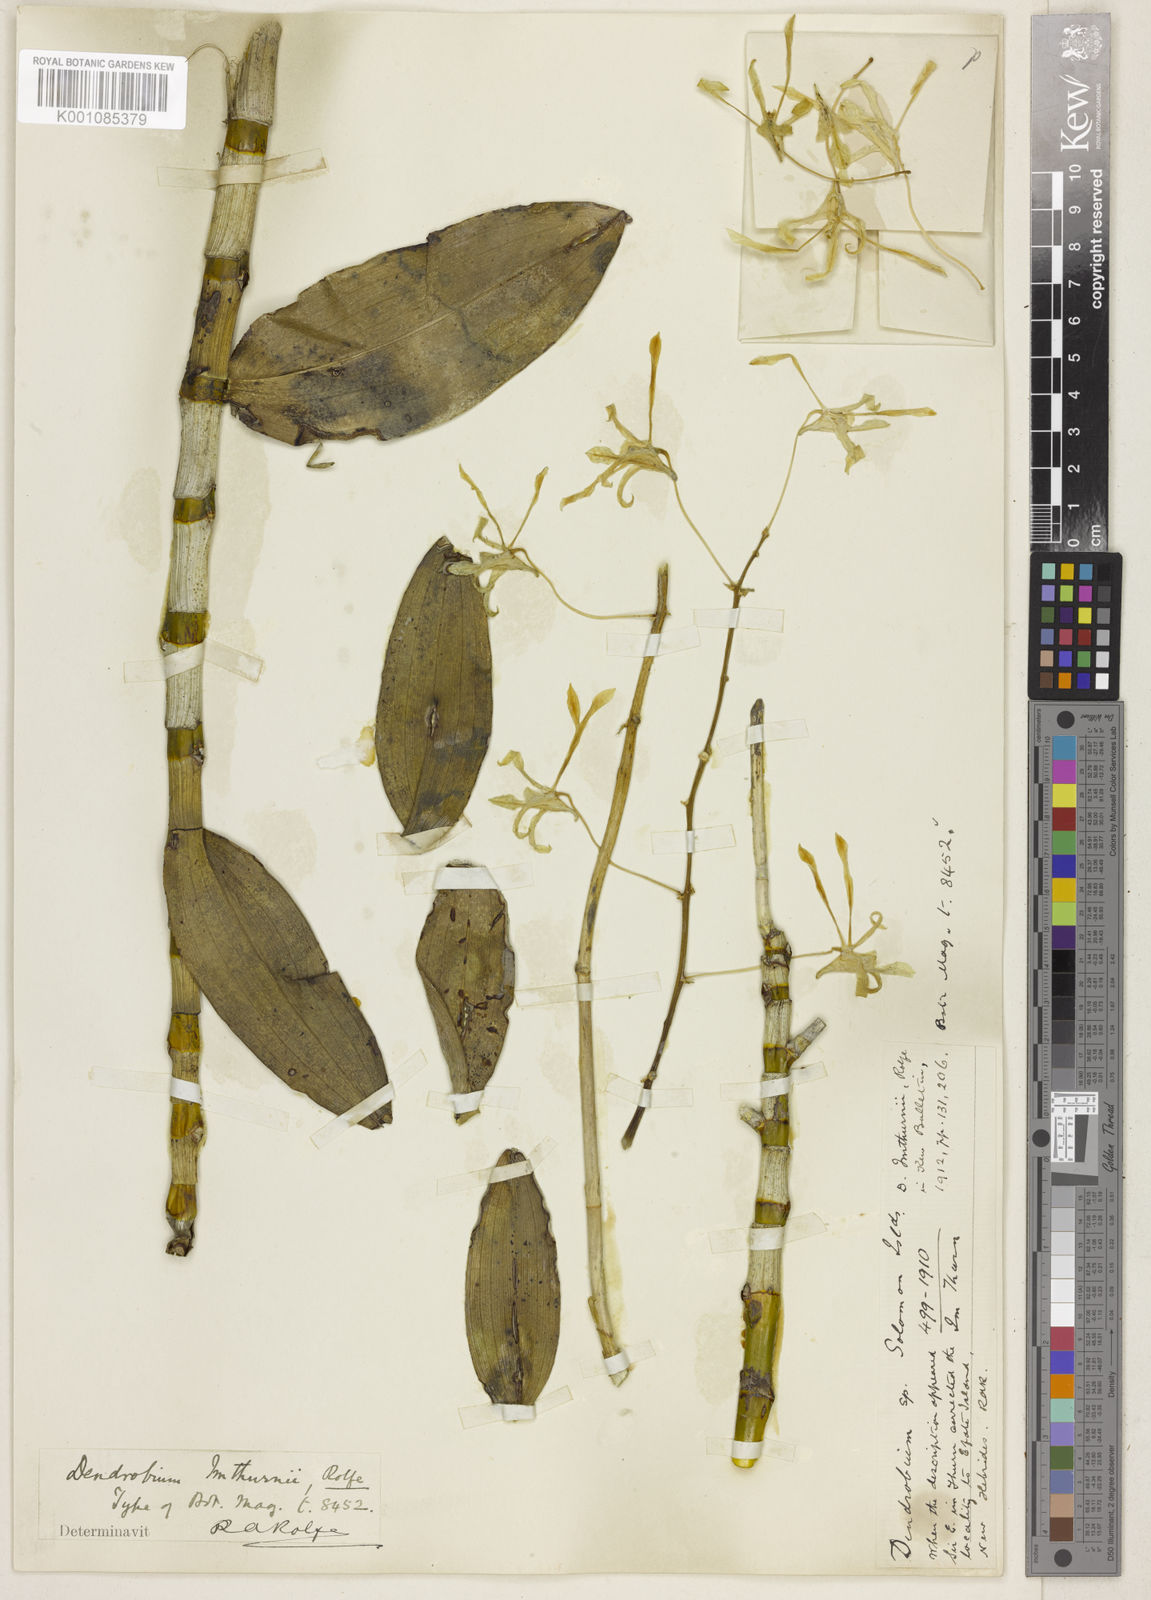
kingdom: Plantae
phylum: Tracheophyta
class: Liliopsida
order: Asparagales
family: Orchidaceae
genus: Dendrobium
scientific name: Dendrobium gouldii
